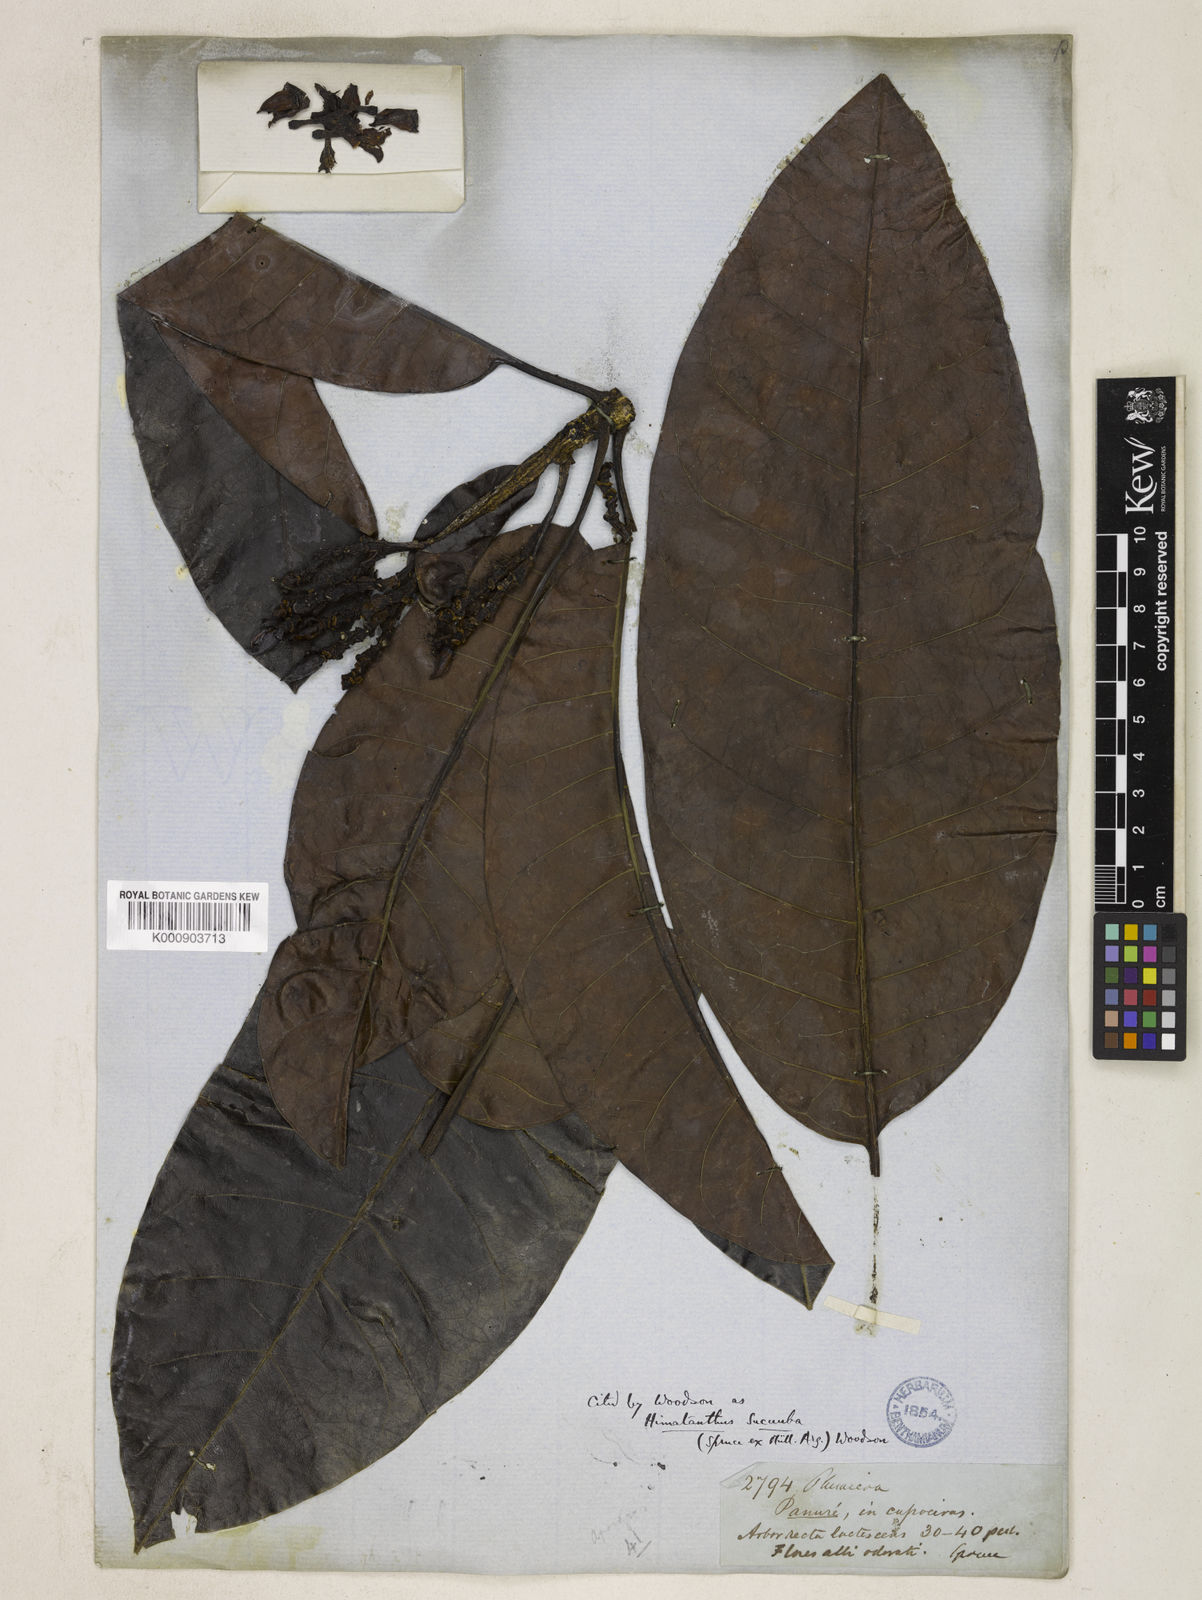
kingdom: Plantae
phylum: Tracheophyta
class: Magnoliopsida
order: Gentianales
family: Apocynaceae
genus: Himatanthus
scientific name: Himatanthus
